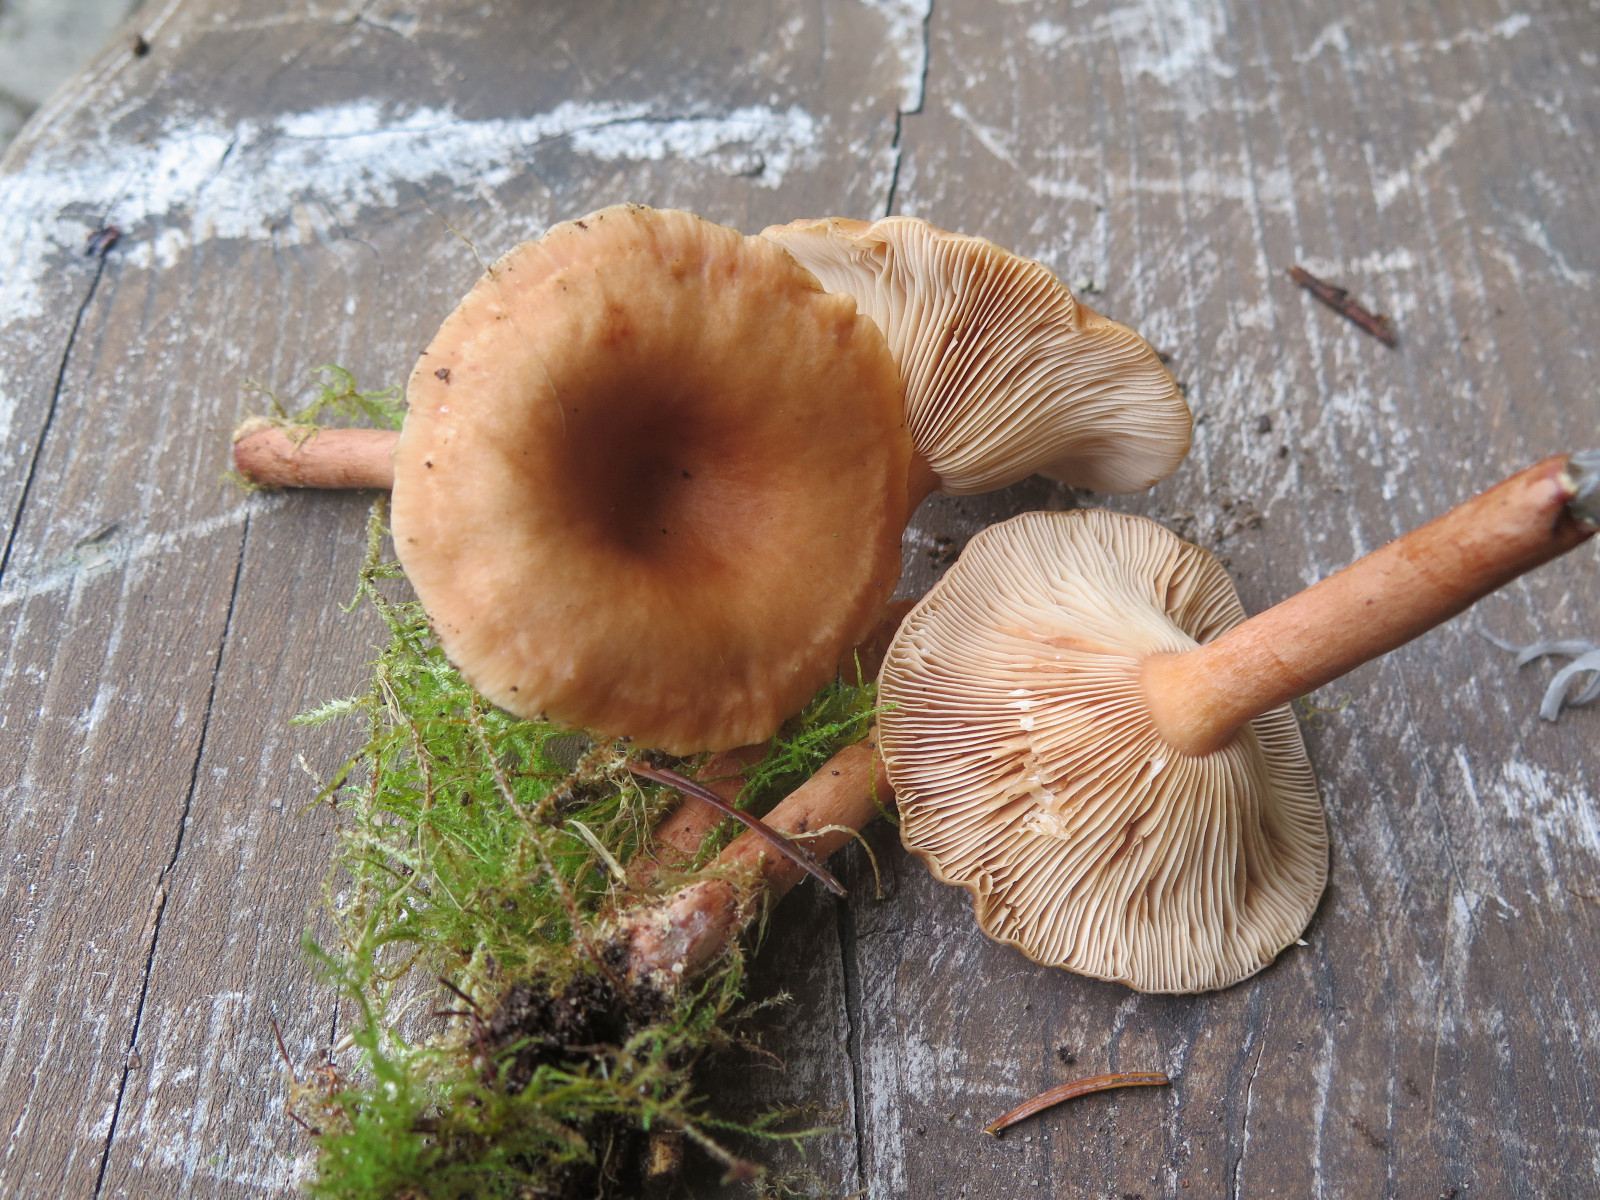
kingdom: Fungi
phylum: Basidiomycota
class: Agaricomycetes
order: Russulales
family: Russulaceae
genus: Lactarius
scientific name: Lactarius tabidus
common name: rynket mælkehat
